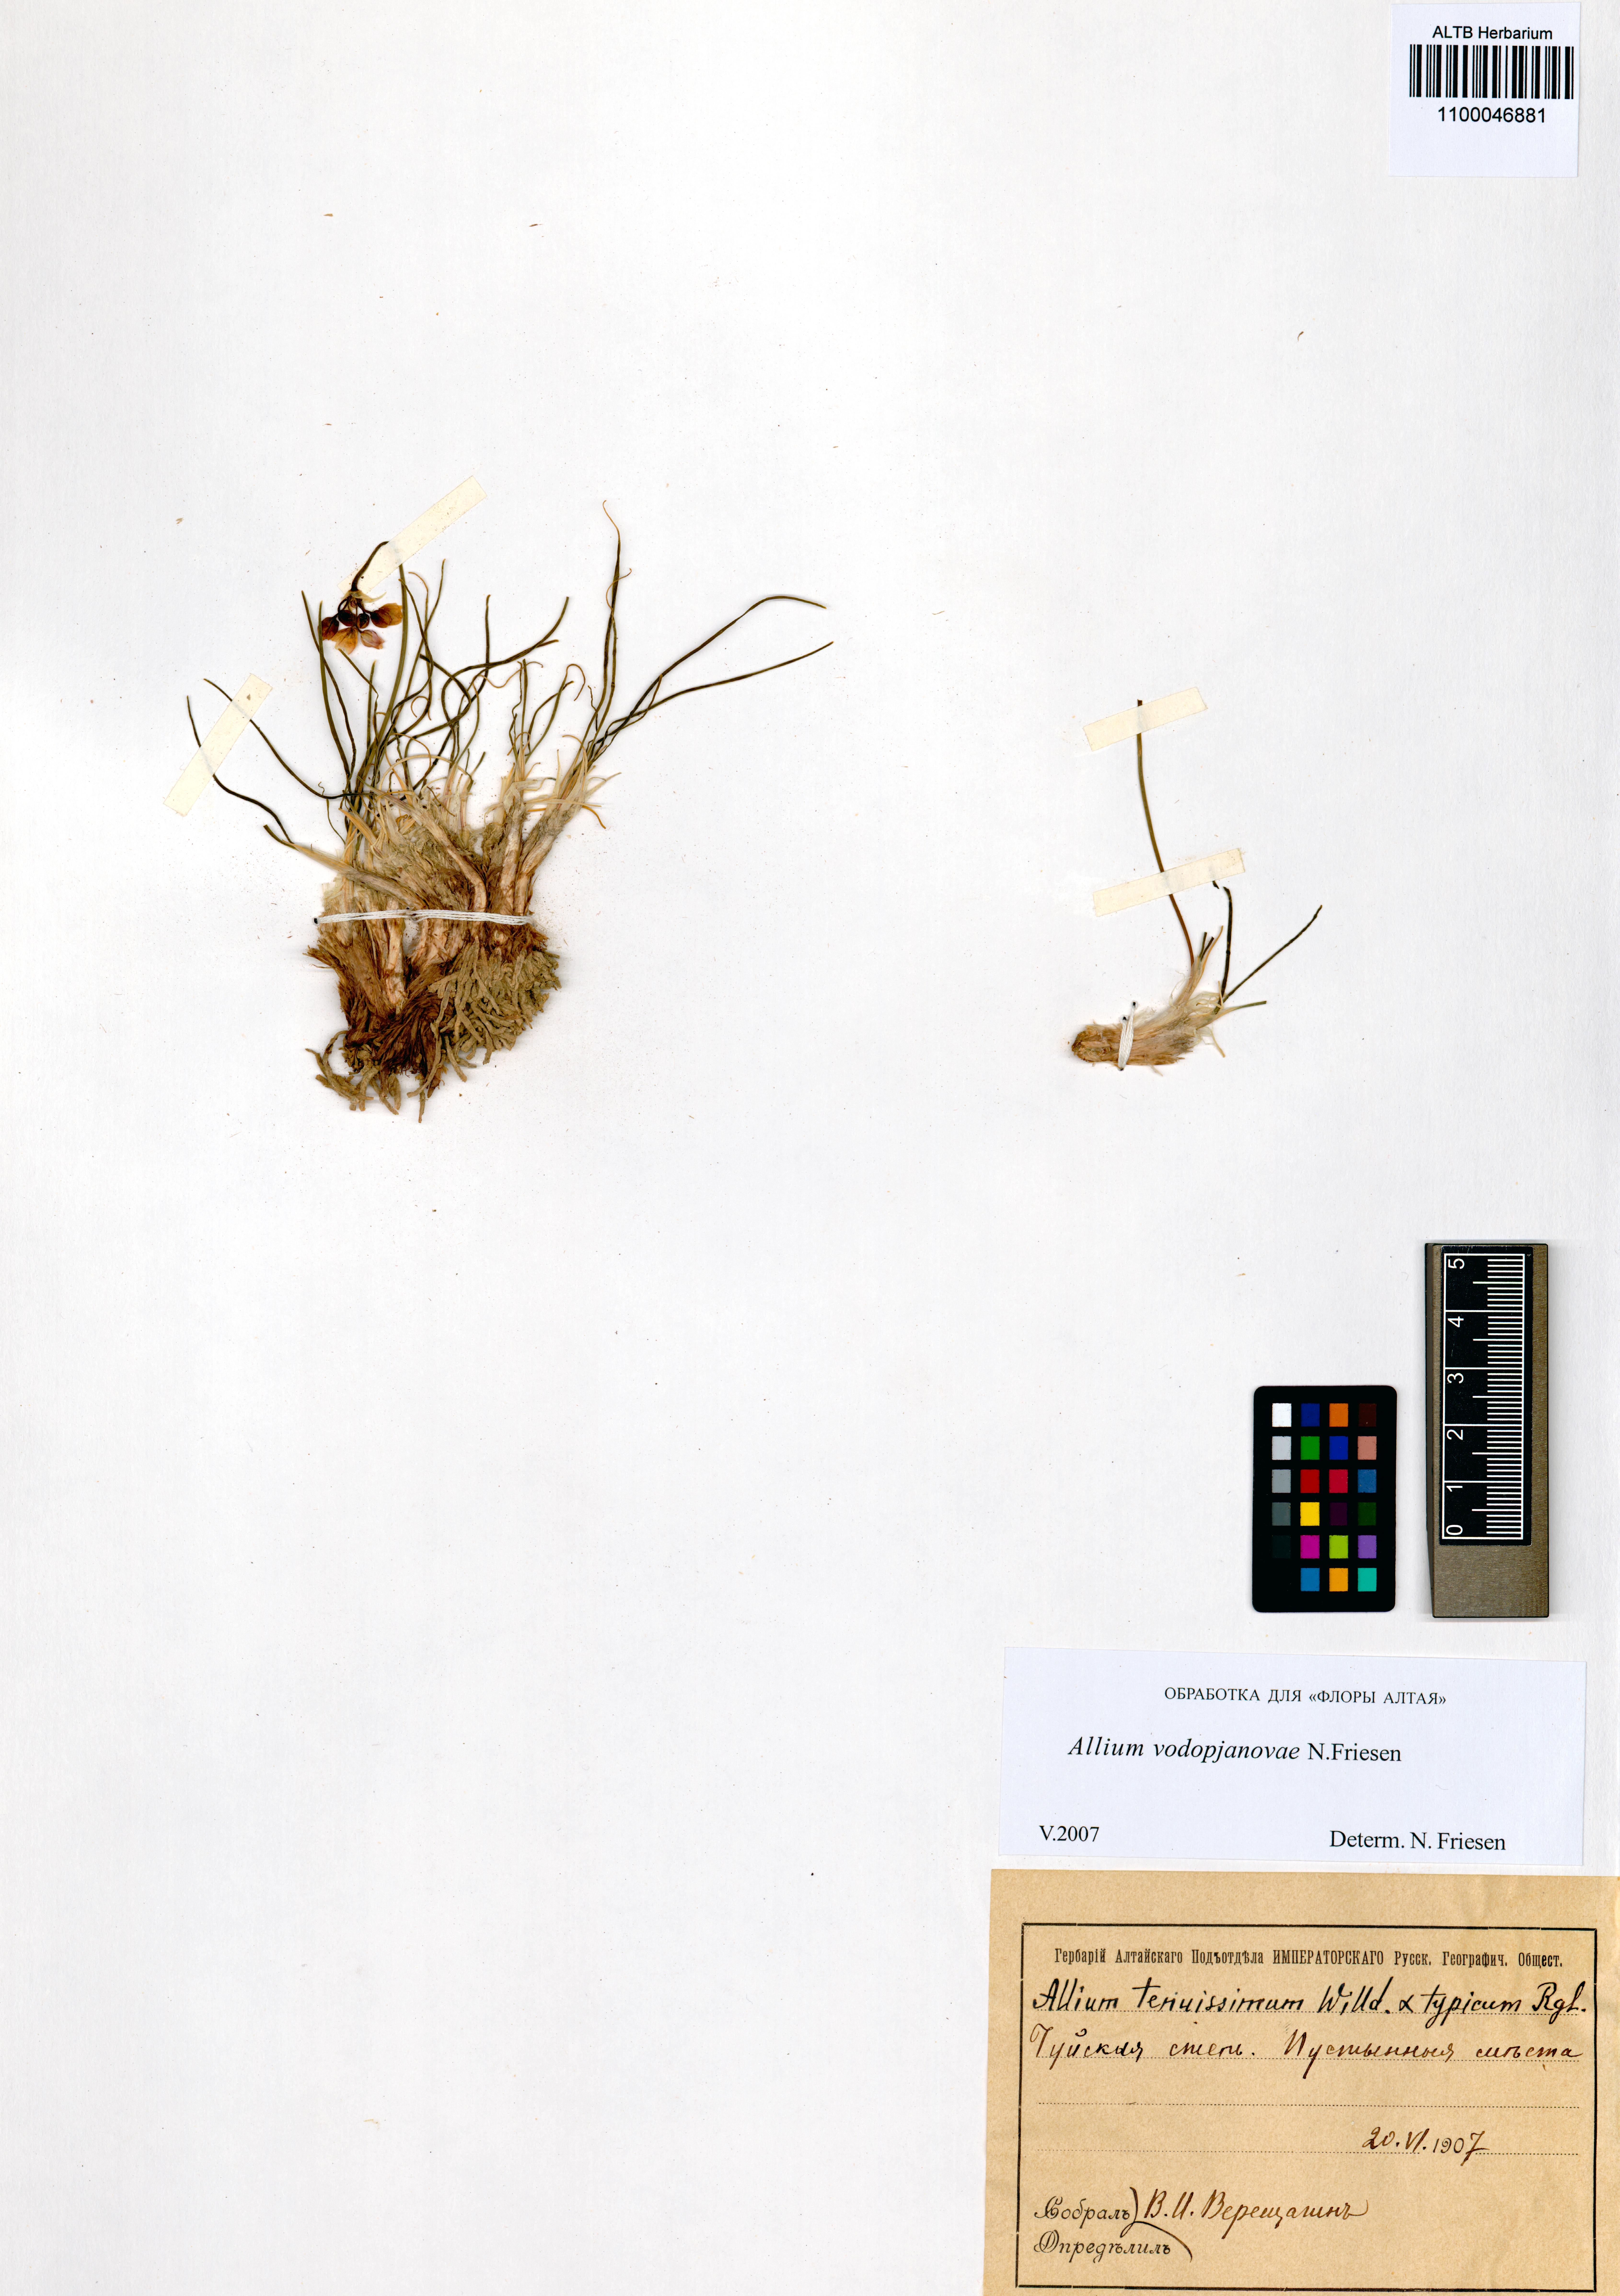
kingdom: Plantae
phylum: Tracheophyta
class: Liliopsida
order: Asparagales
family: Amaryllidaceae
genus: Allium
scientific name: Allium vodopjanovae
